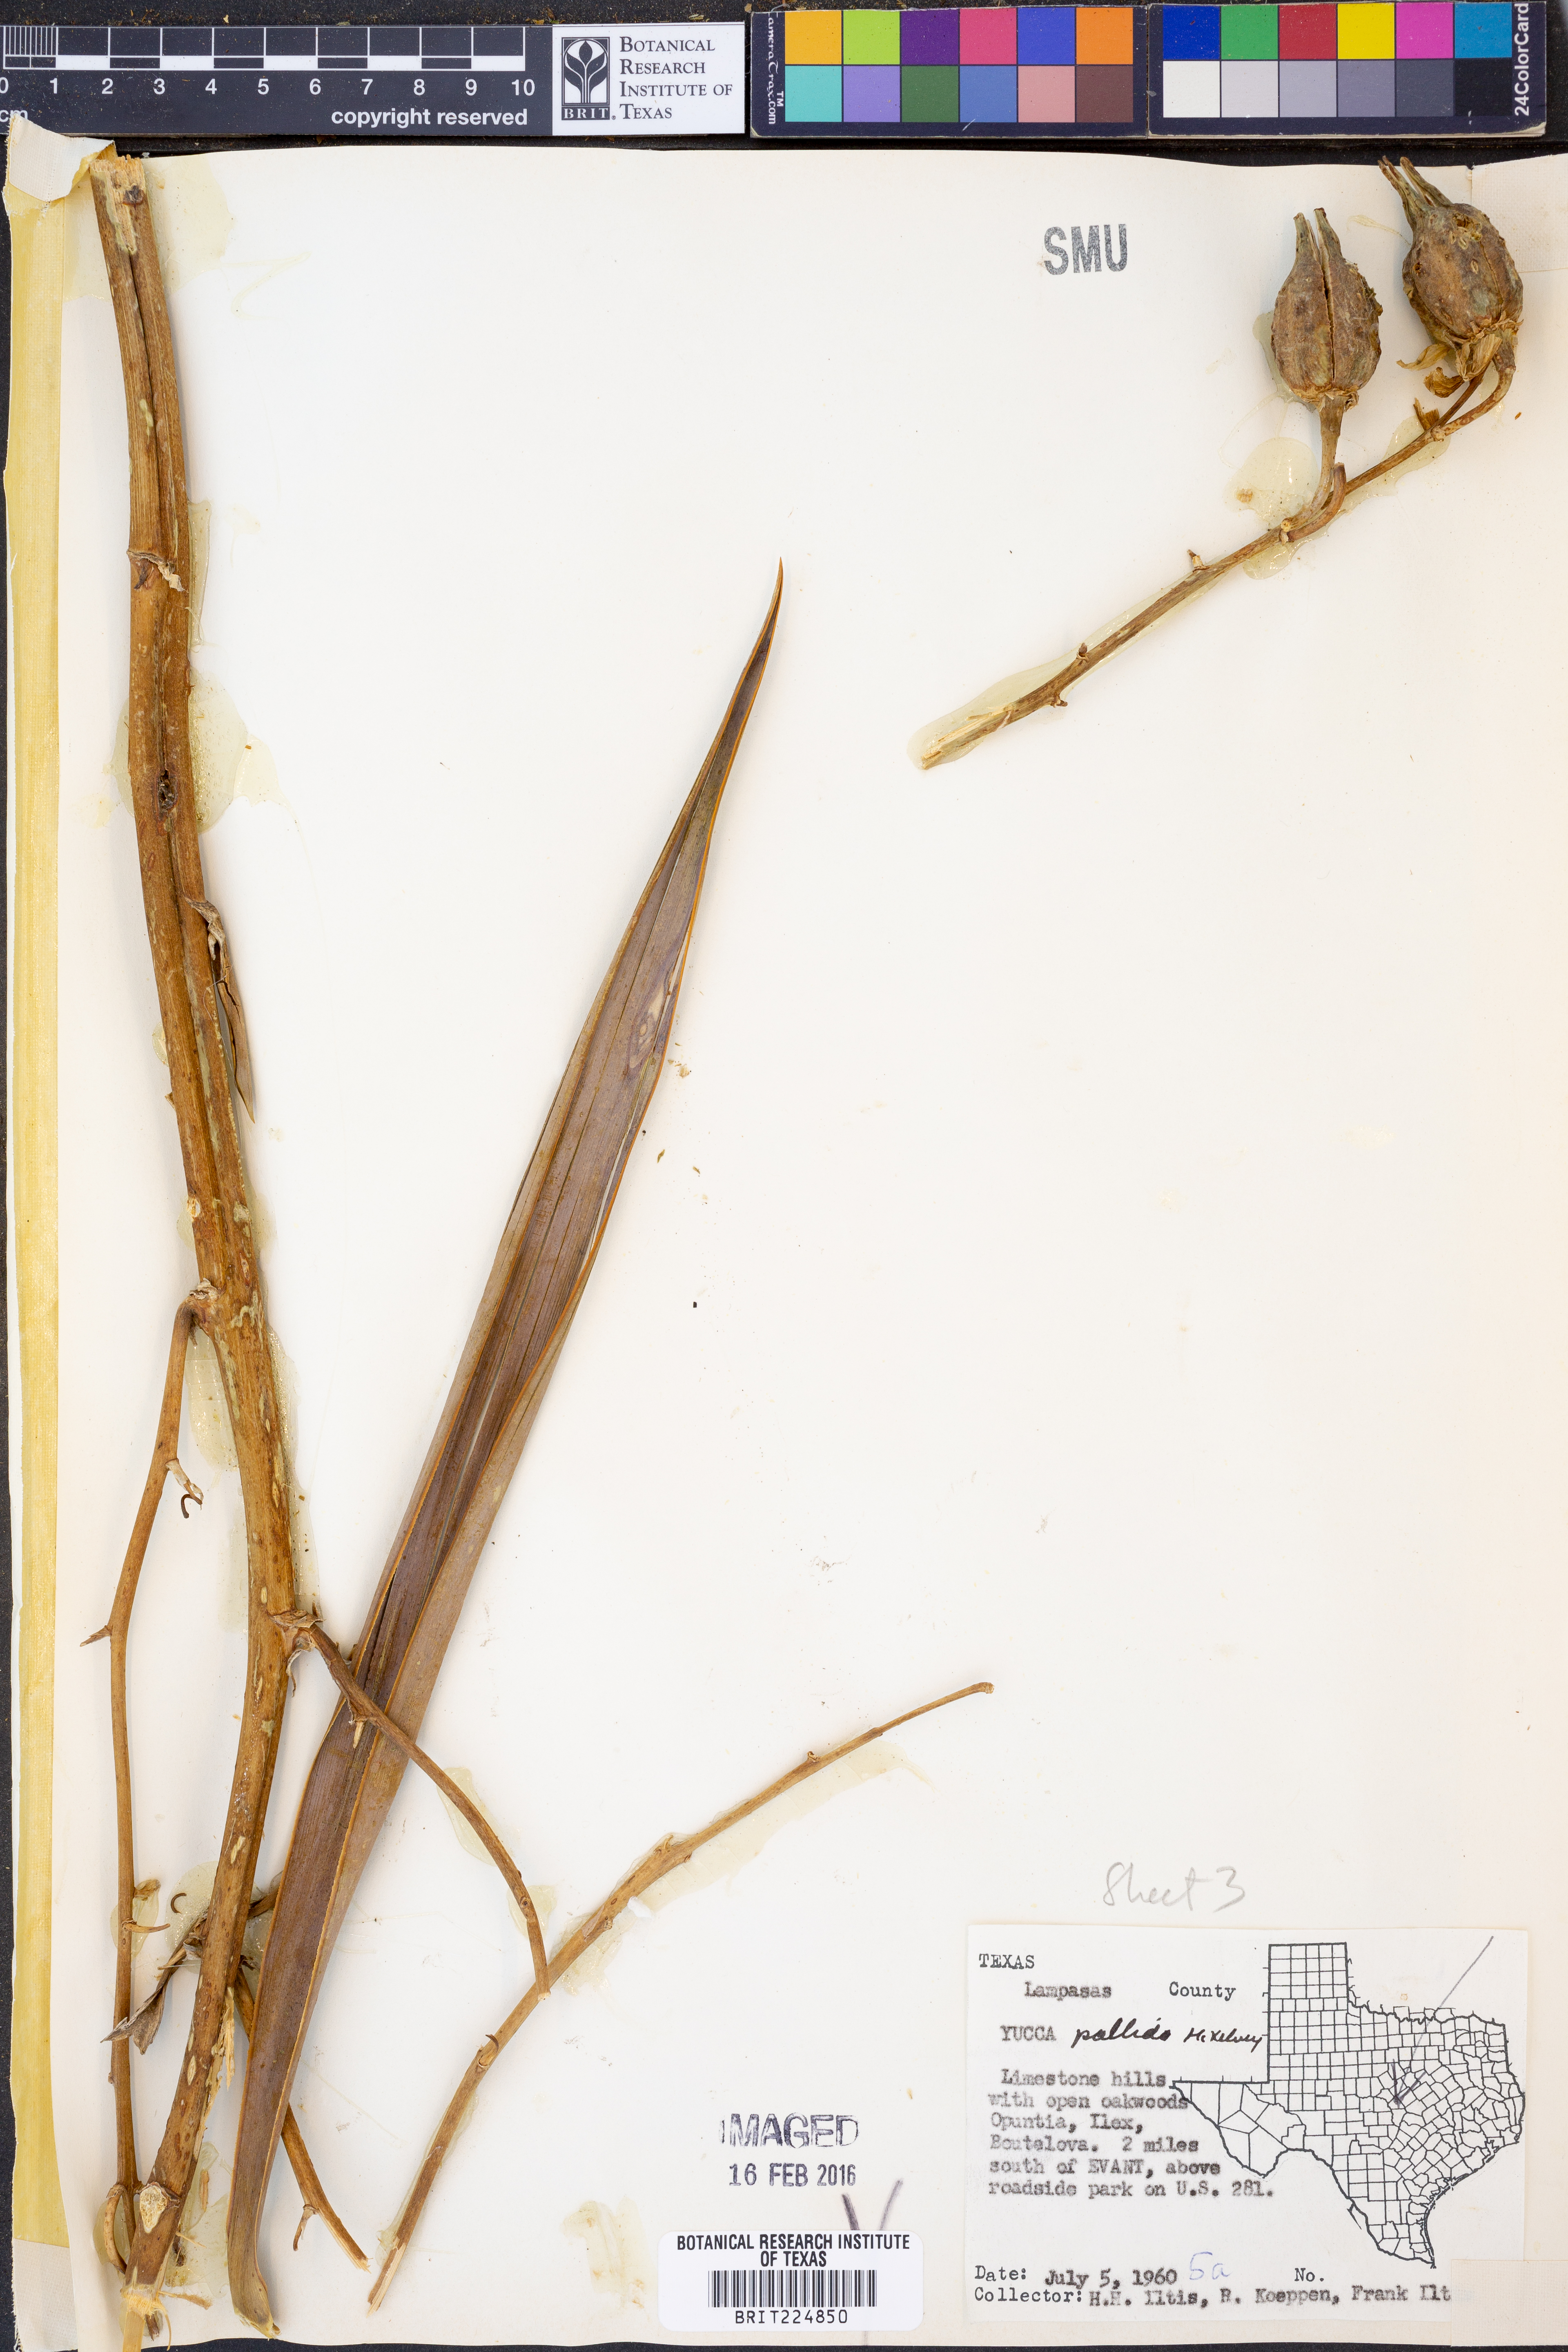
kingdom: Plantae
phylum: Tracheophyta
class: Liliopsida
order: Asparagales
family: Asparagaceae
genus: Yucca
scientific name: Yucca pallida
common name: Pale leaf yucca
